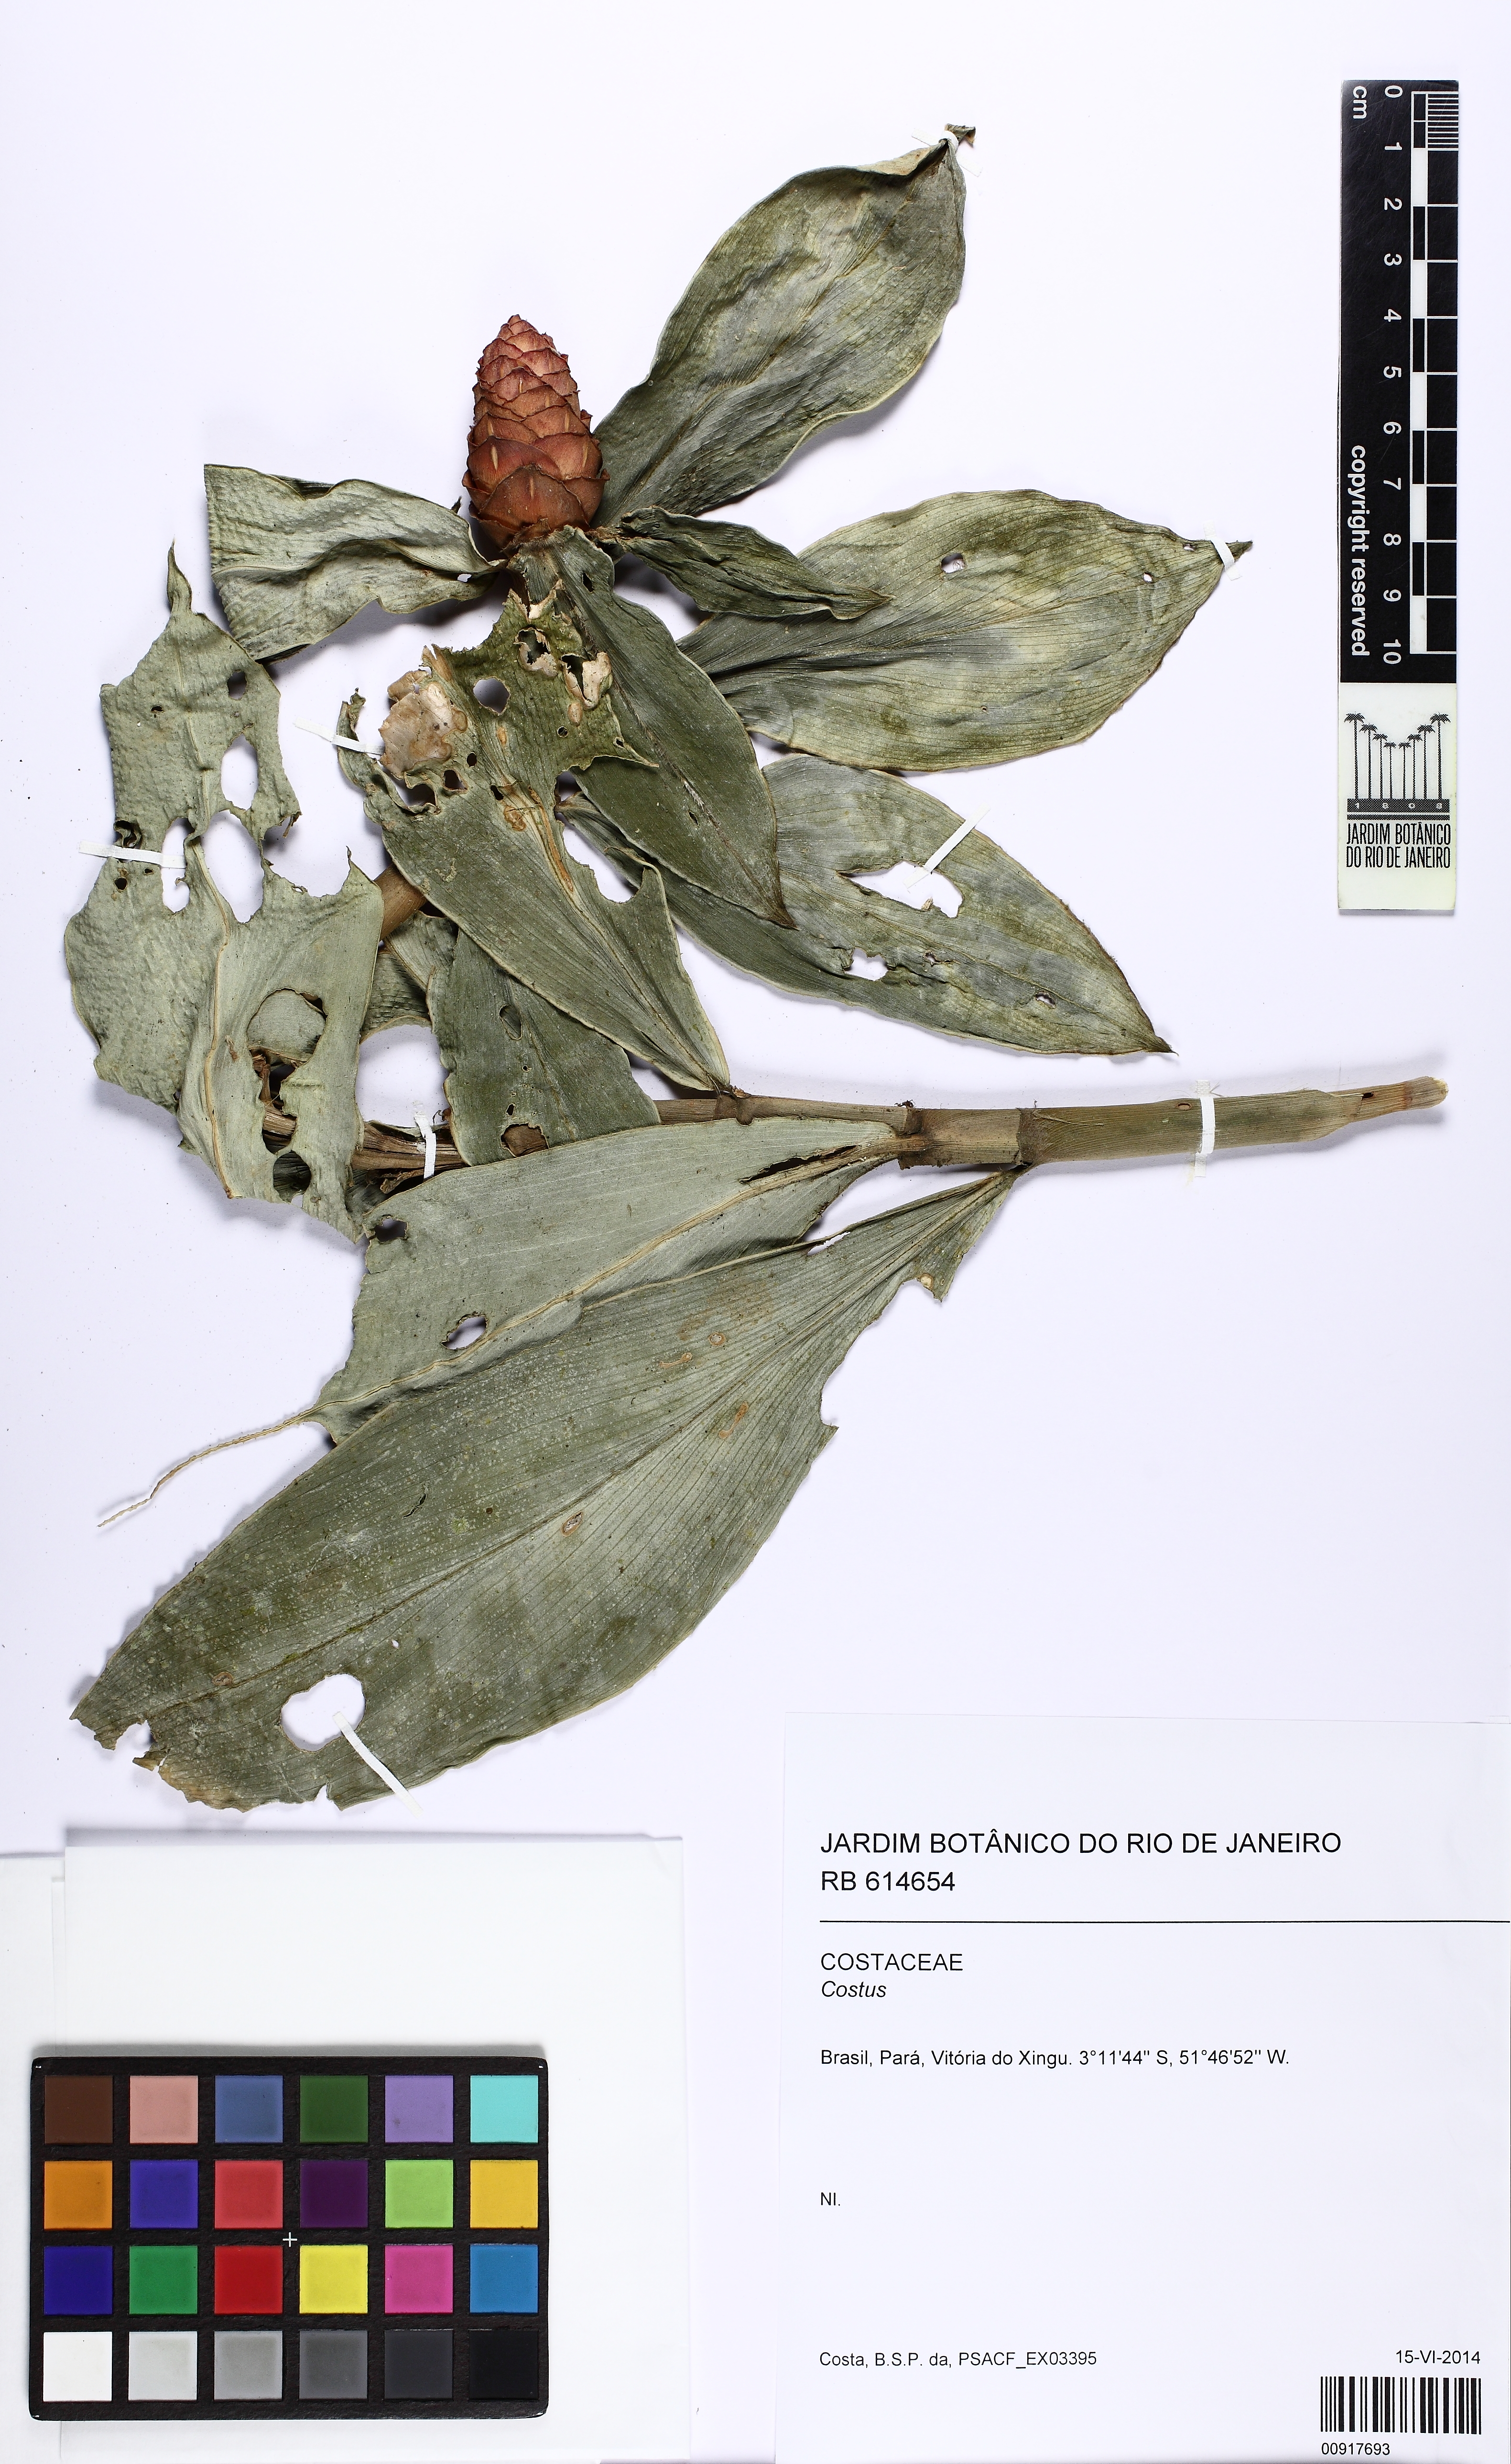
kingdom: Plantae
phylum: Tracheophyta
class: Liliopsida
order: Zingiberales
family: Costaceae
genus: Costus
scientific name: Costus scaber
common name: Spiral head ginger
